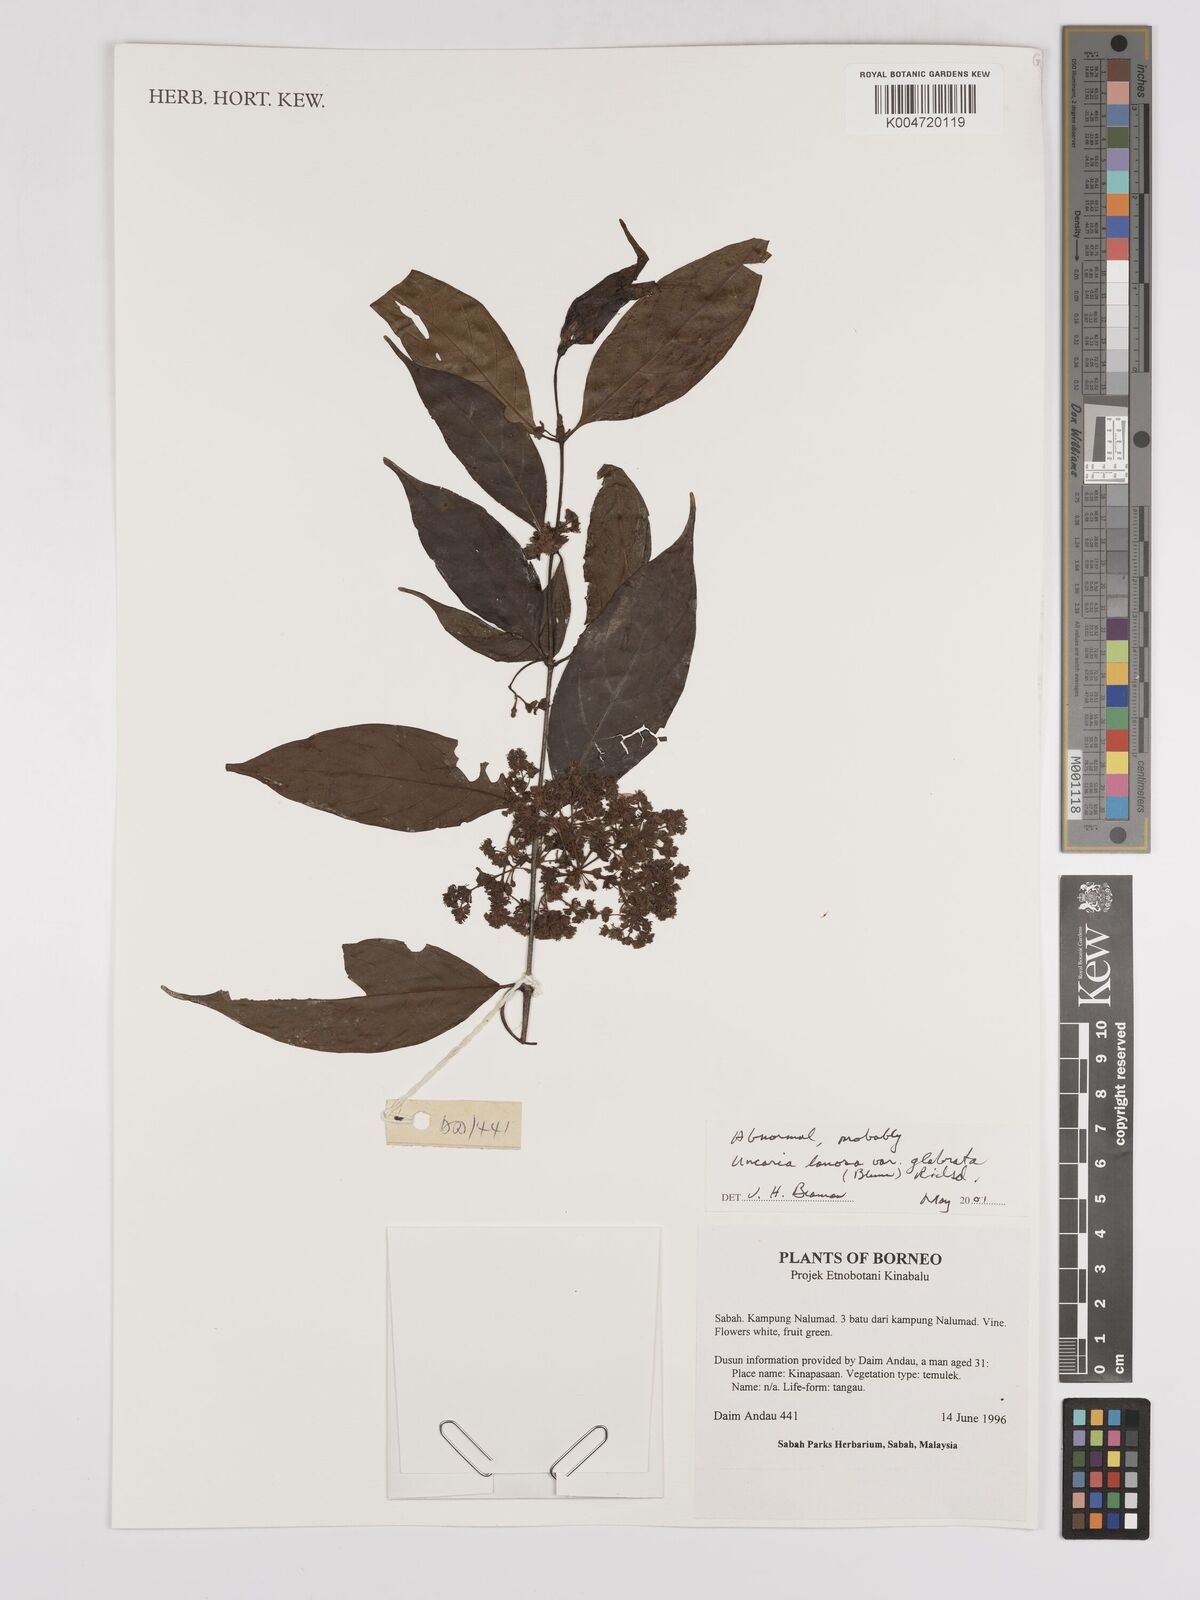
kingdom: Plantae
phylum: Tracheophyta
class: Magnoliopsida
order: Gentianales
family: Rubiaceae
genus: Uncaria
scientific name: Uncaria
